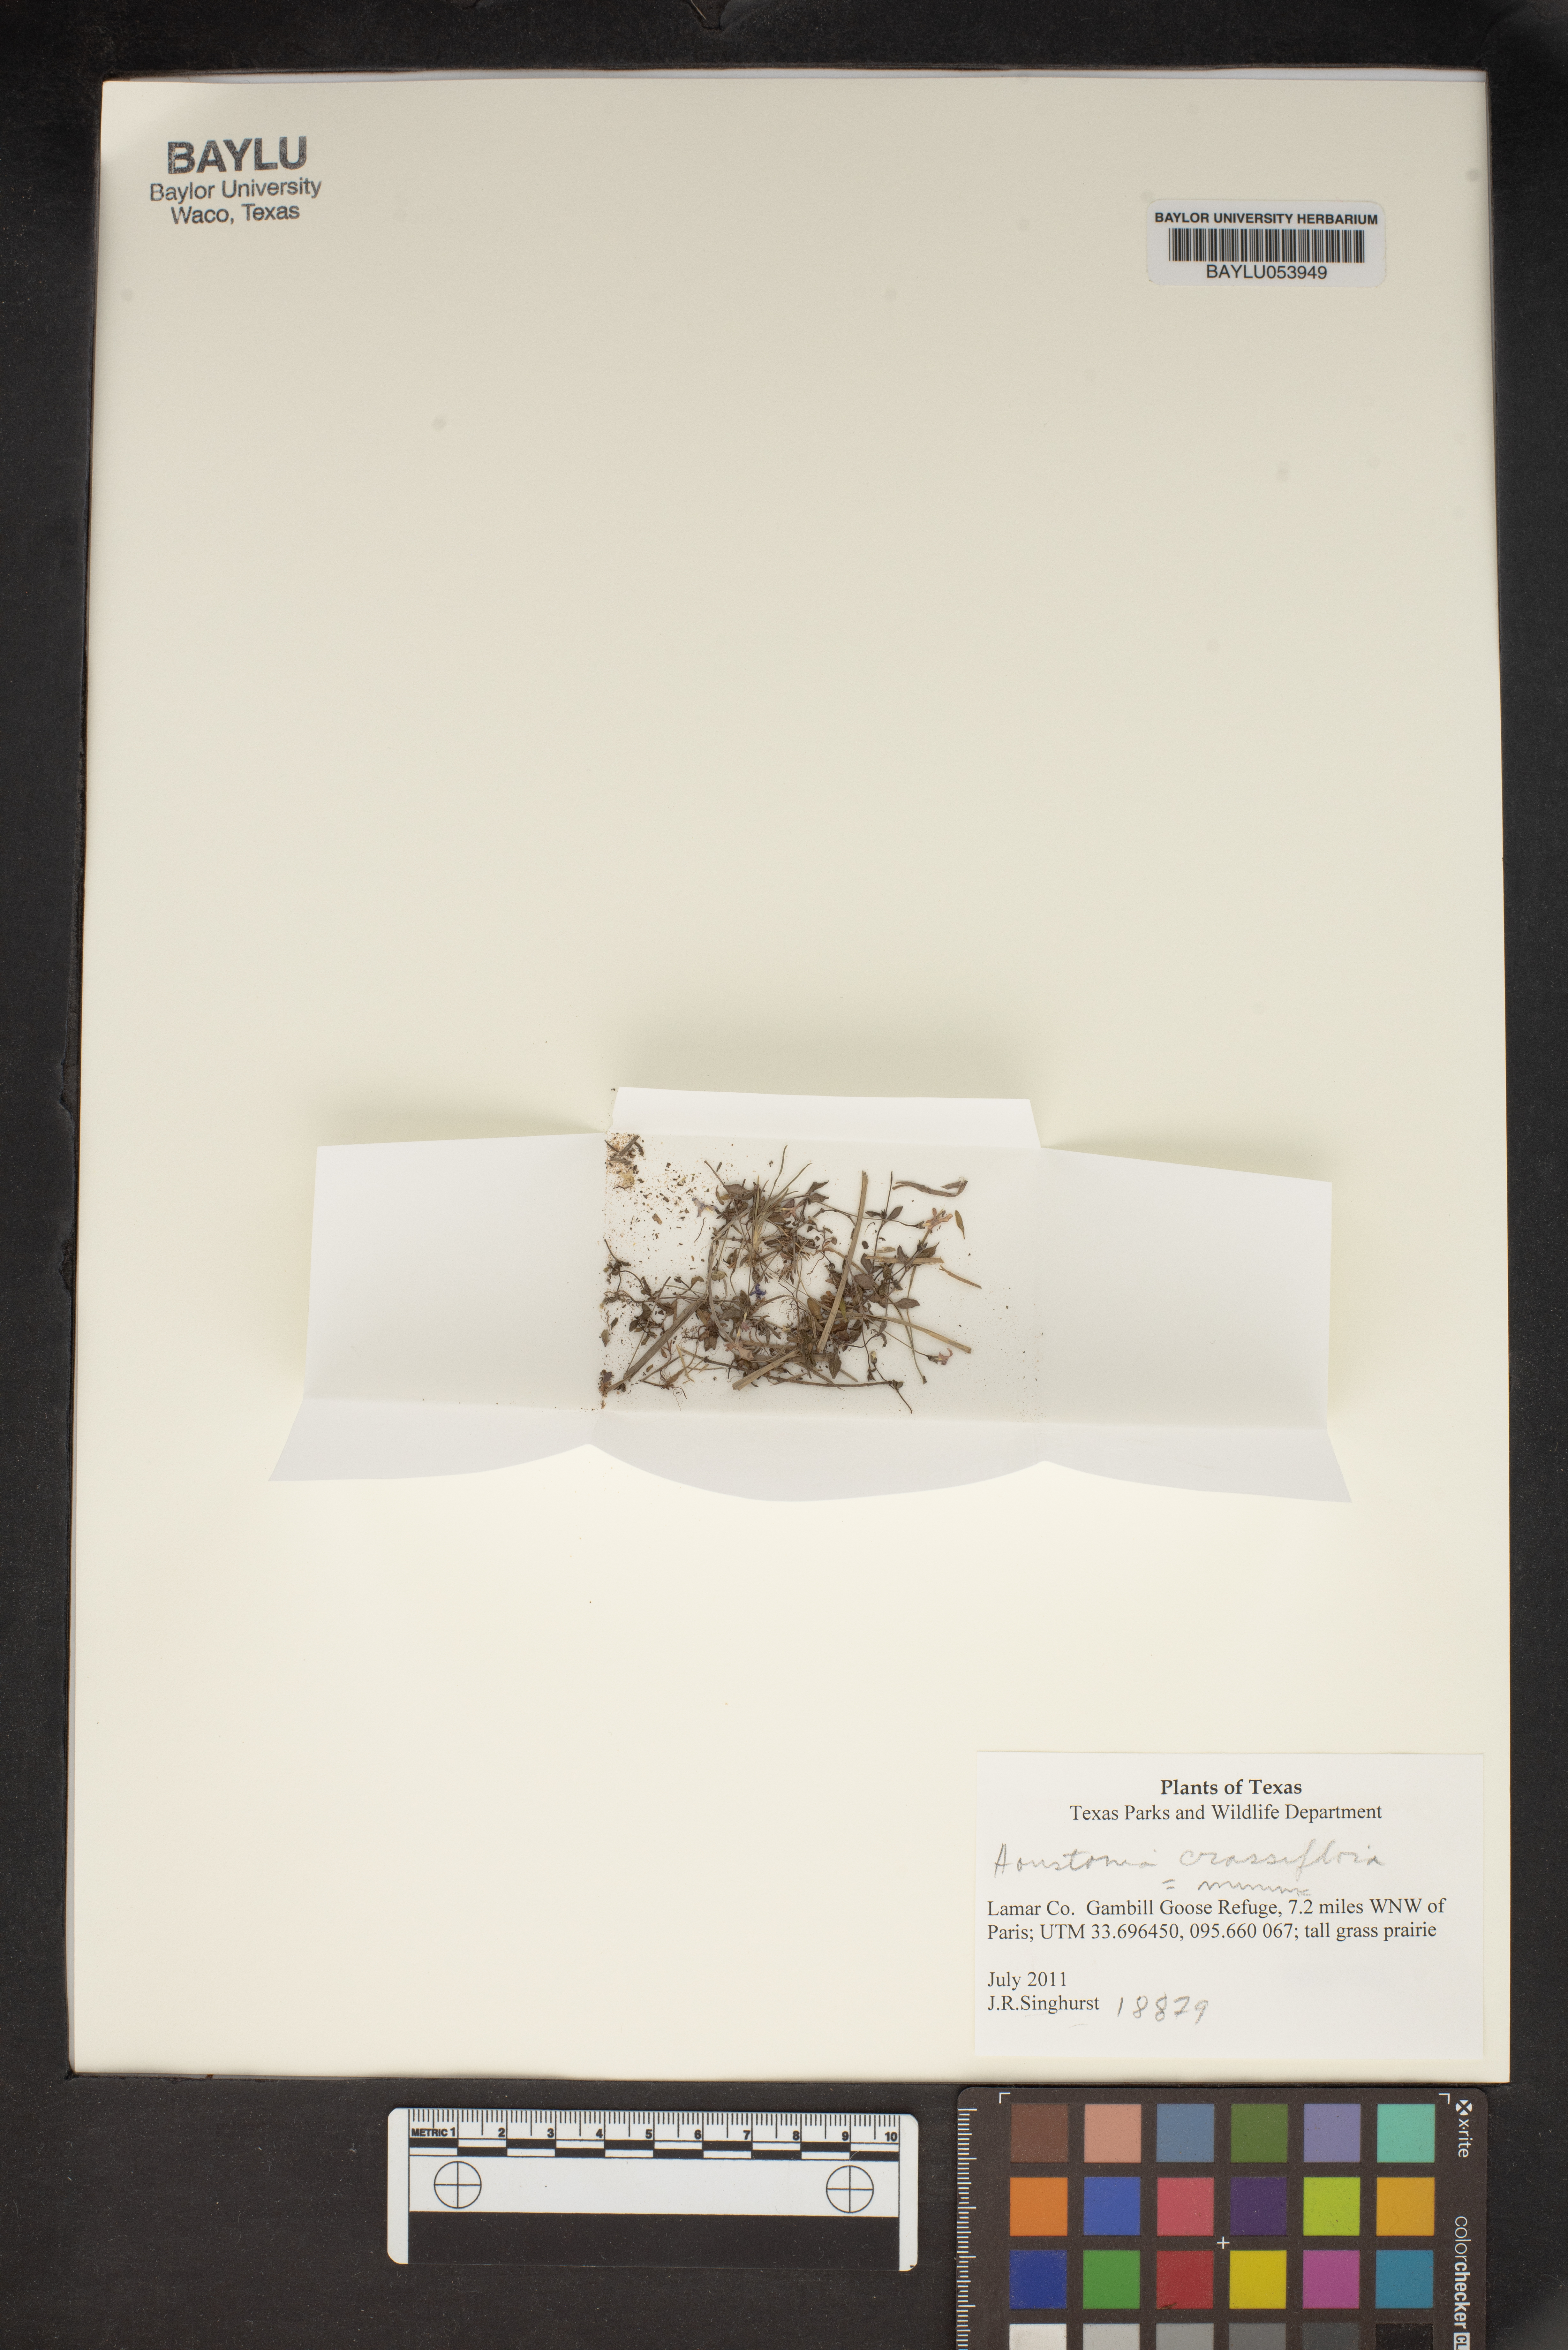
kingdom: Plantae
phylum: Tracheophyta
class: Magnoliopsida
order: Gentianales
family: Rubiaceae
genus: Houstonia
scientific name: Houstonia pusilla
